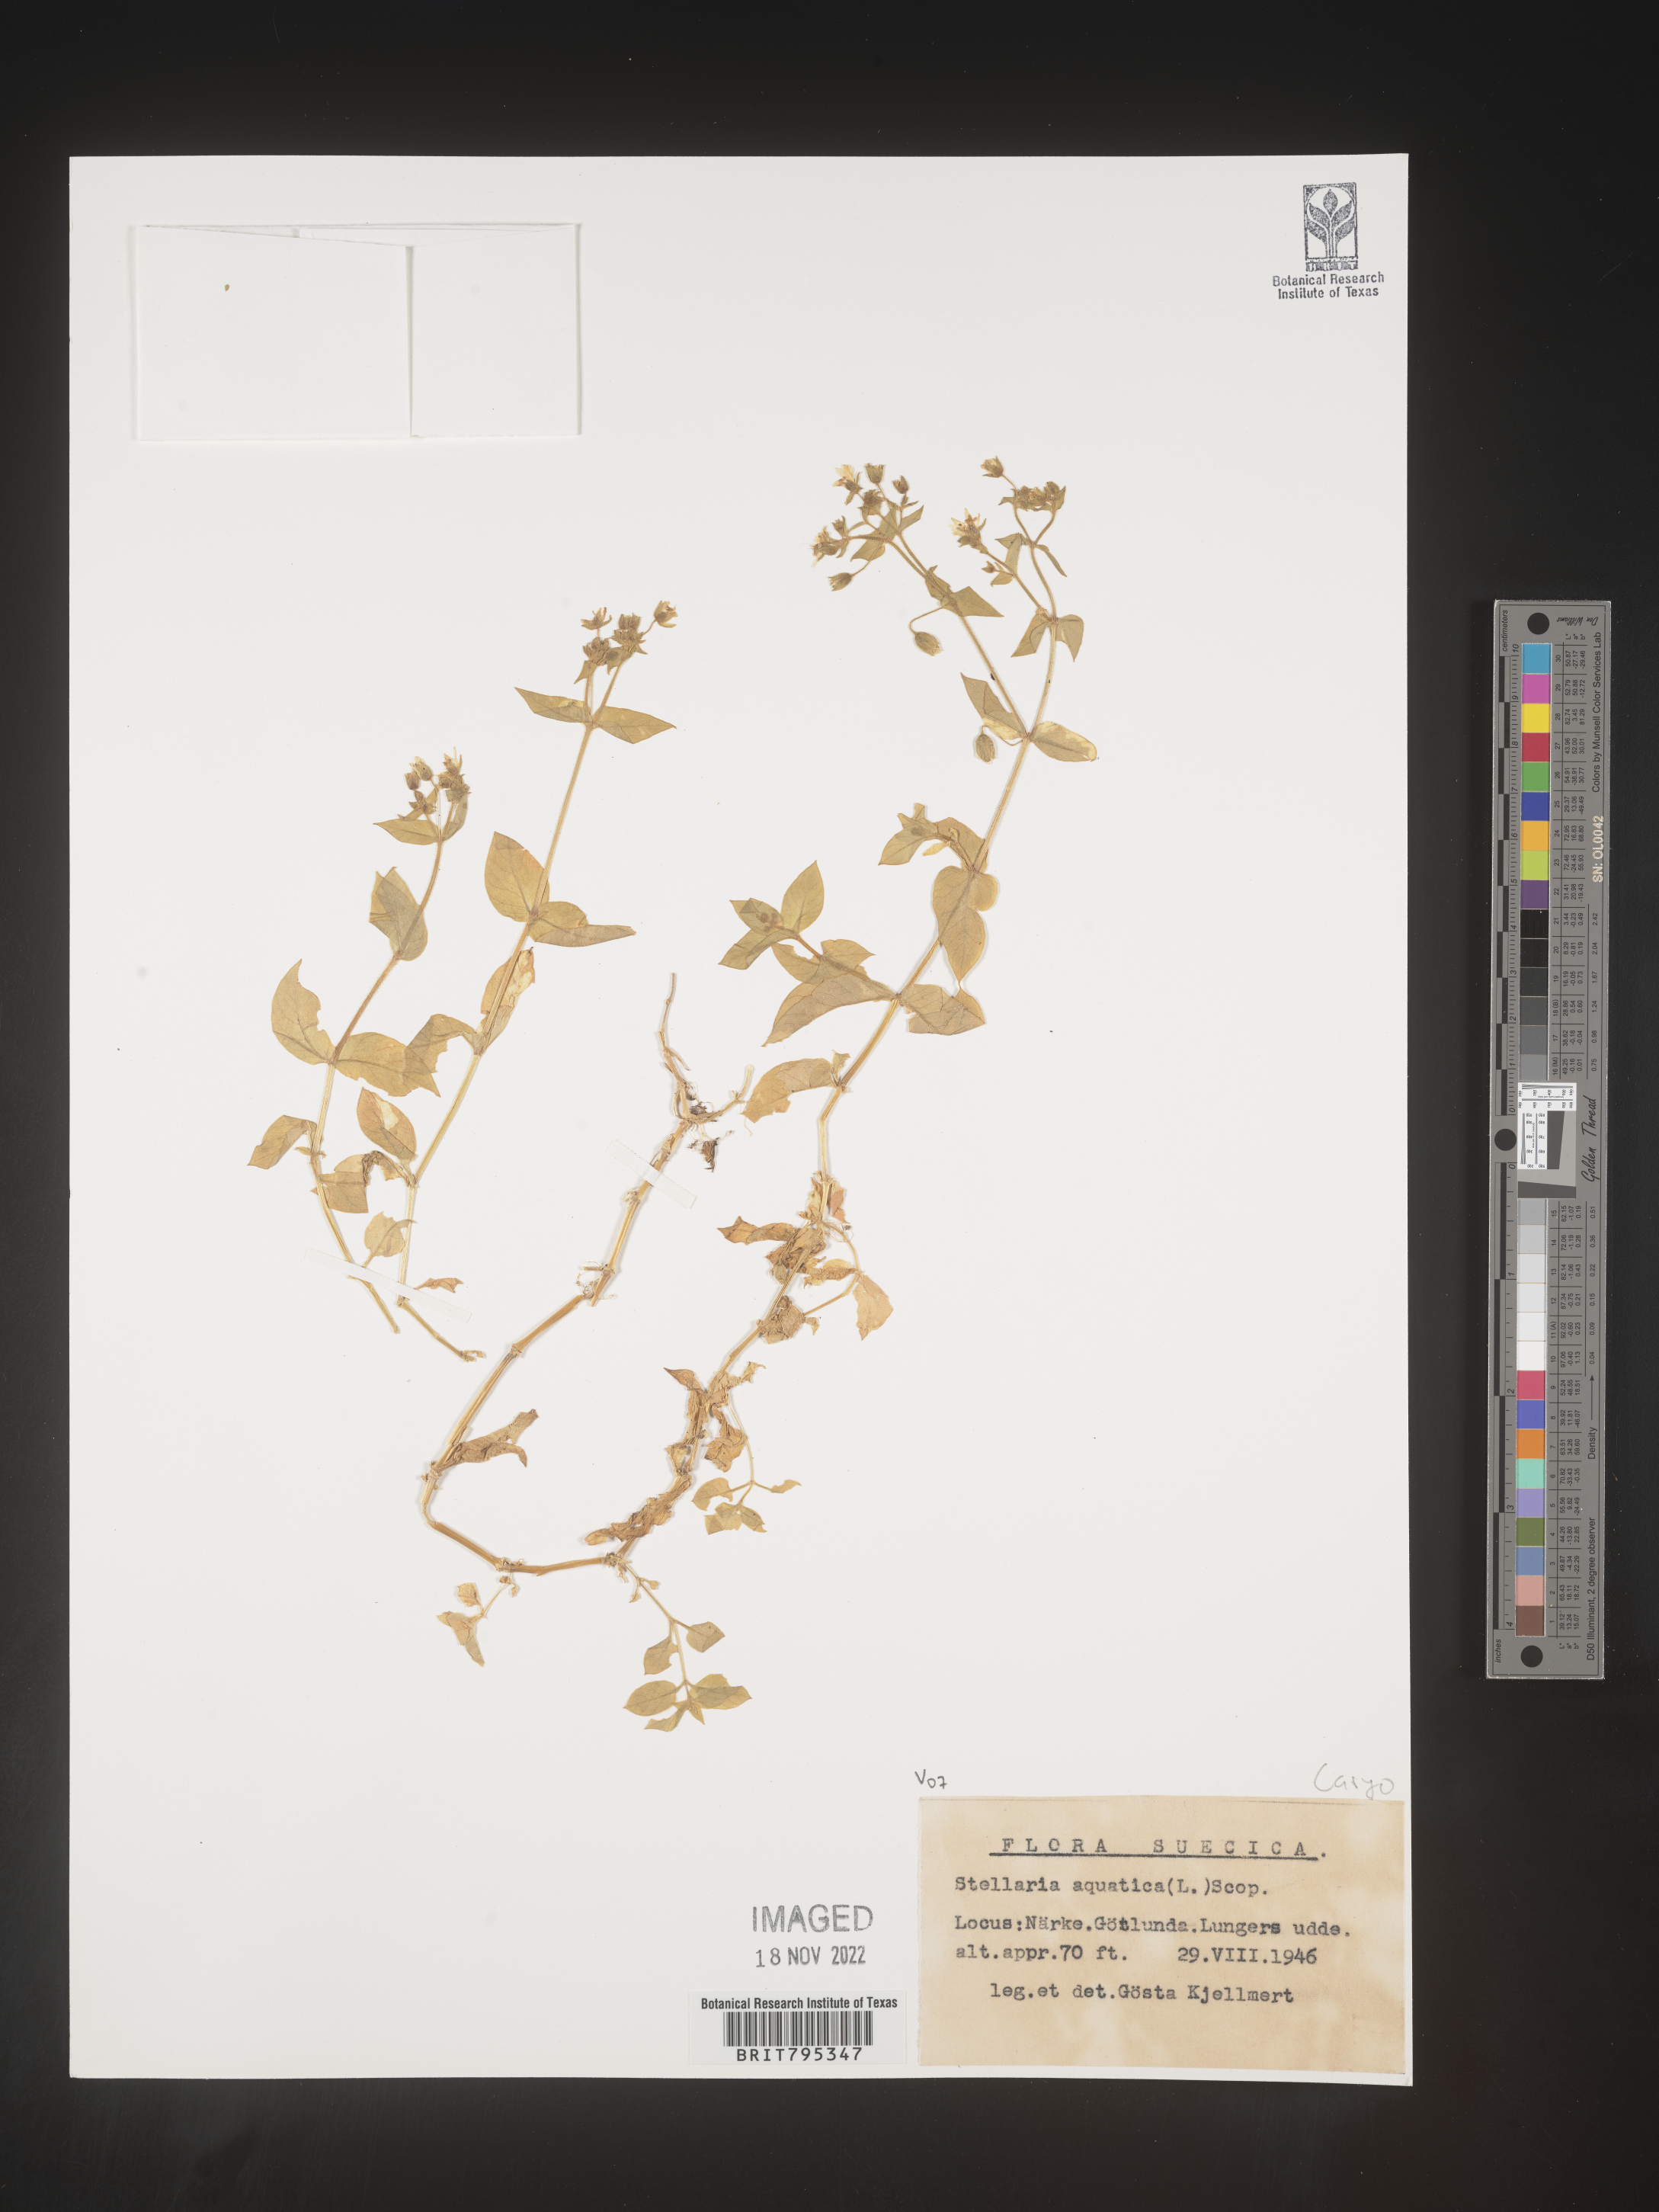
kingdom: Plantae
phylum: Tracheophyta
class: Magnoliopsida
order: Caryophyllales
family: Caryophyllaceae
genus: Stellaria
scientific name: Stellaria
